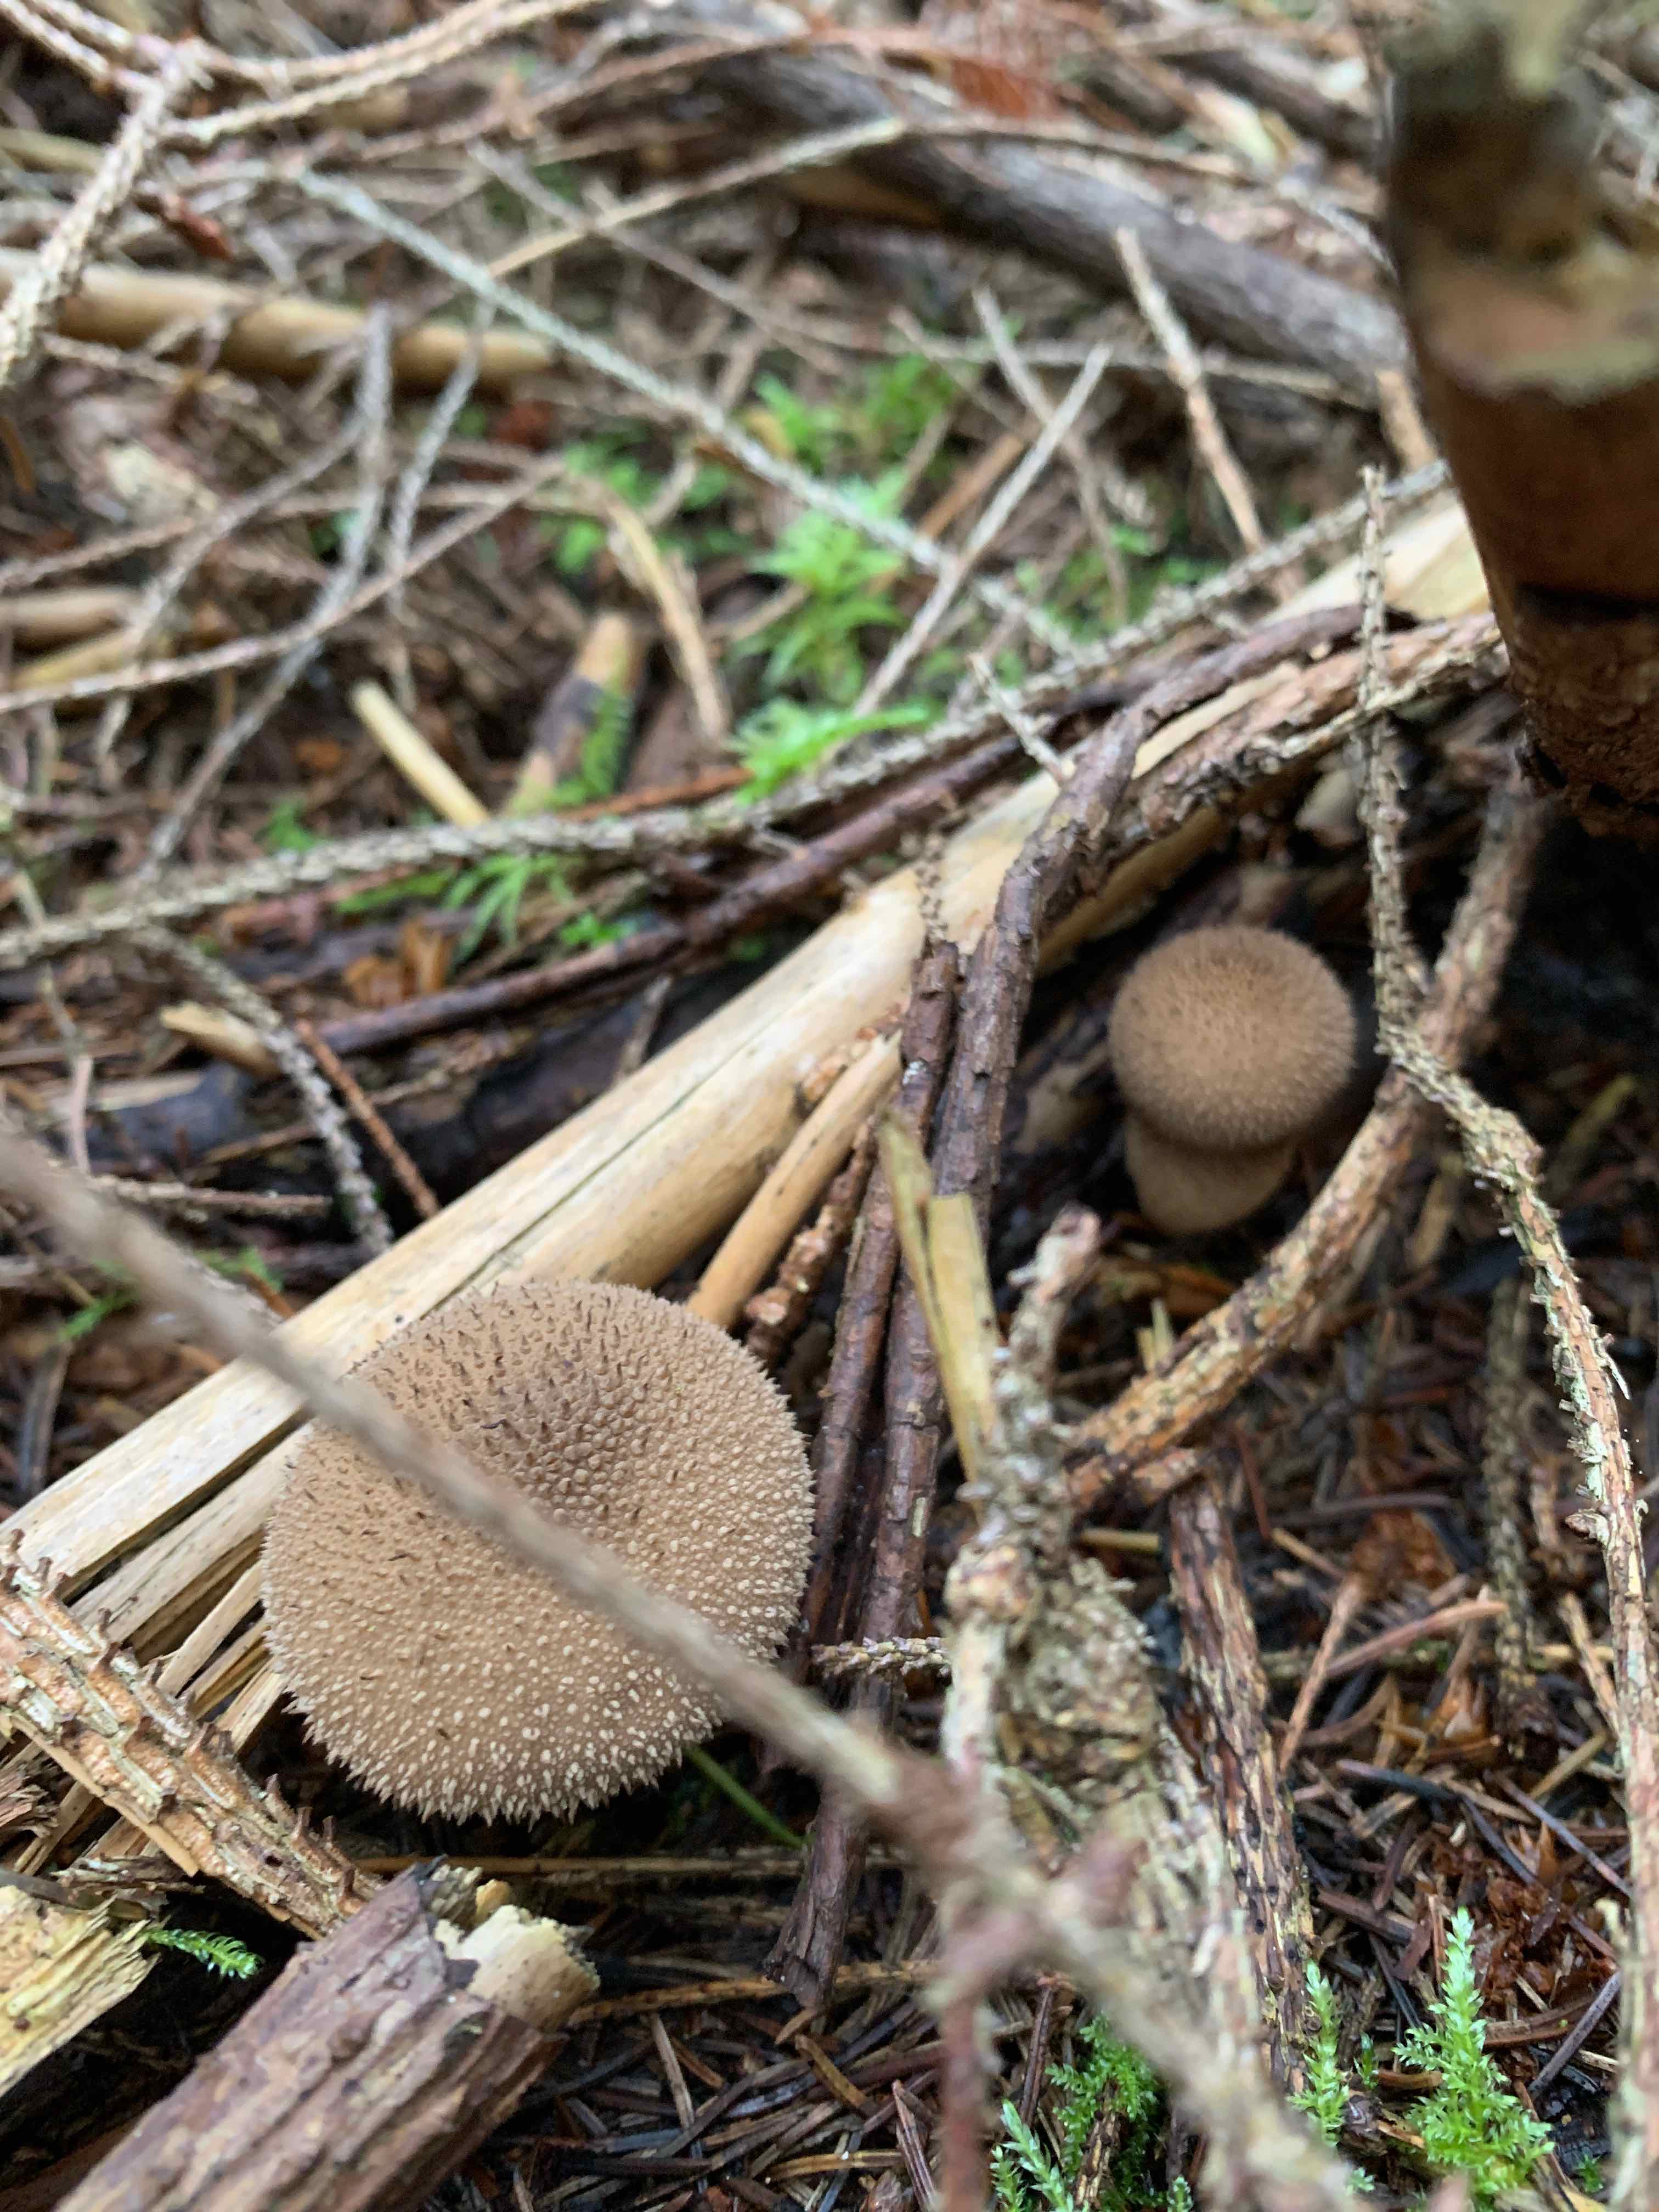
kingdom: Fungi
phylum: Basidiomycota
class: Agaricomycetes
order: Agaricales
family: Lycoperdaceae
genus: Lycoperdon
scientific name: Lycoperdon nigrescens
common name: sortagtig støvbold
